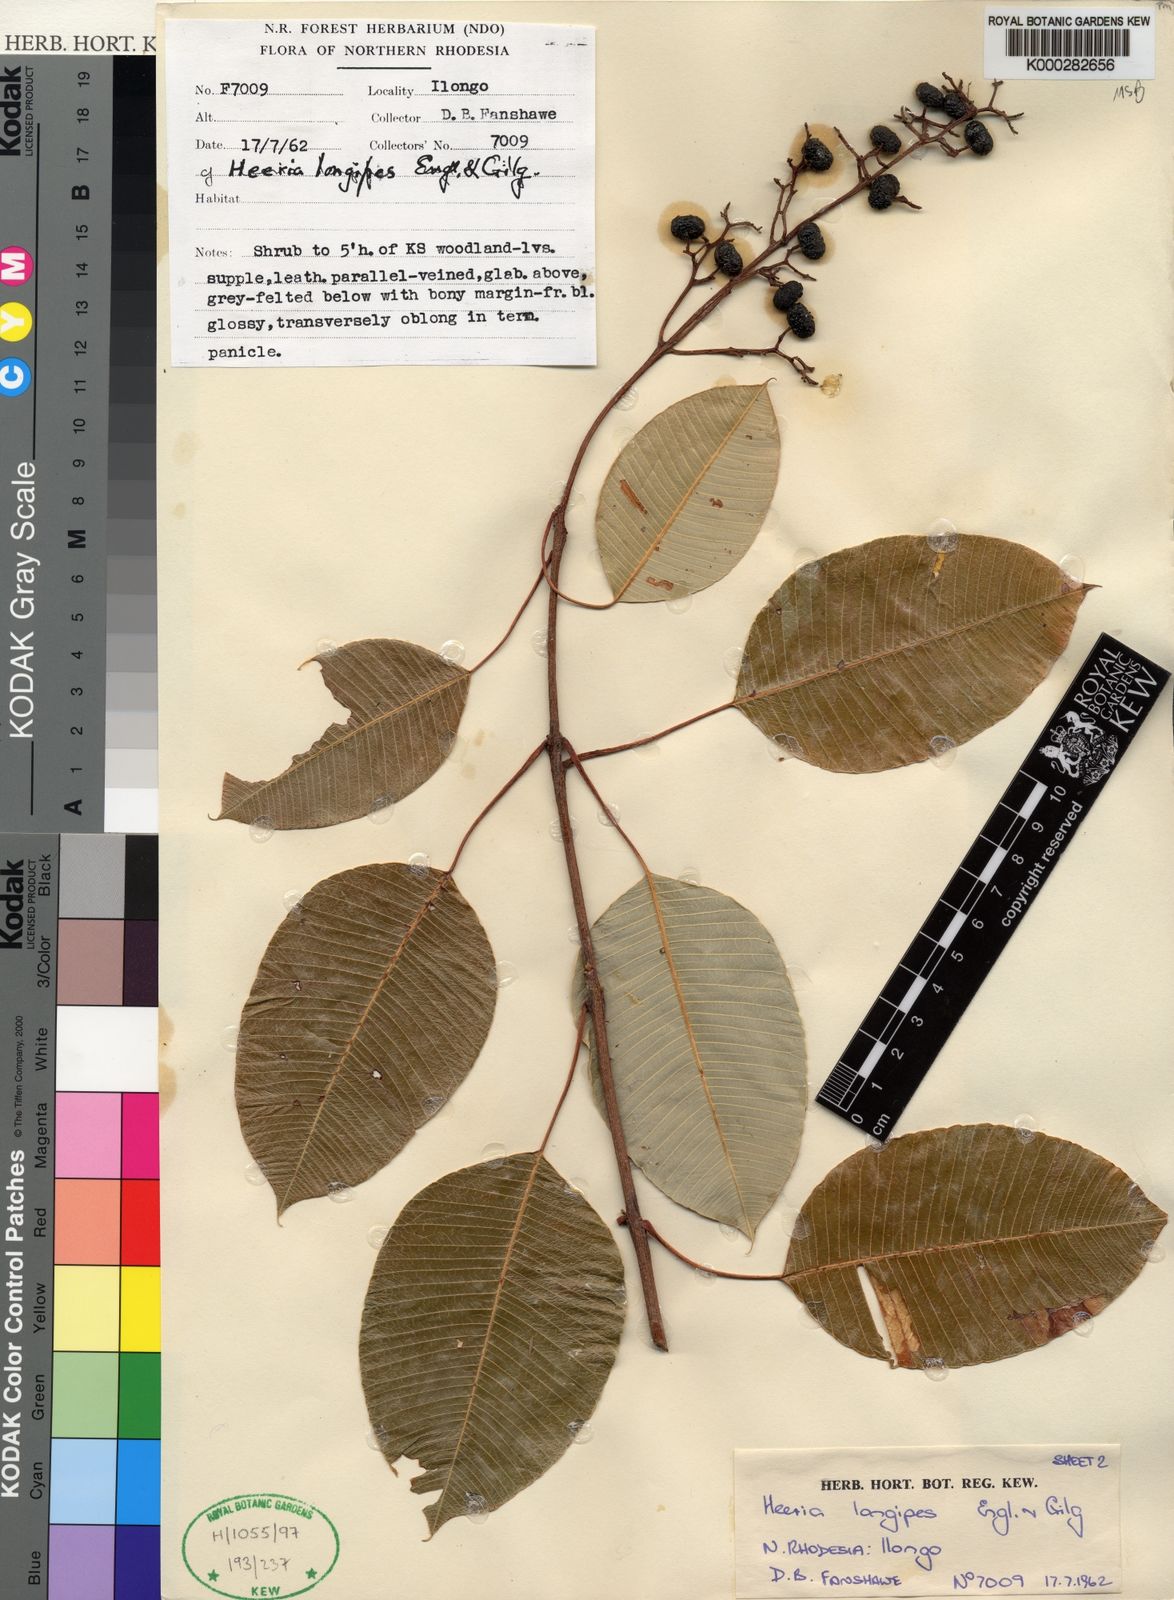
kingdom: Plantae
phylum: Tracheophyta
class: Magnoliopsida
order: Sapindales
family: Anacardiaceae
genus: Ozoroa
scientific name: Ozoroa longipes
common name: Round-leaved resin tree
